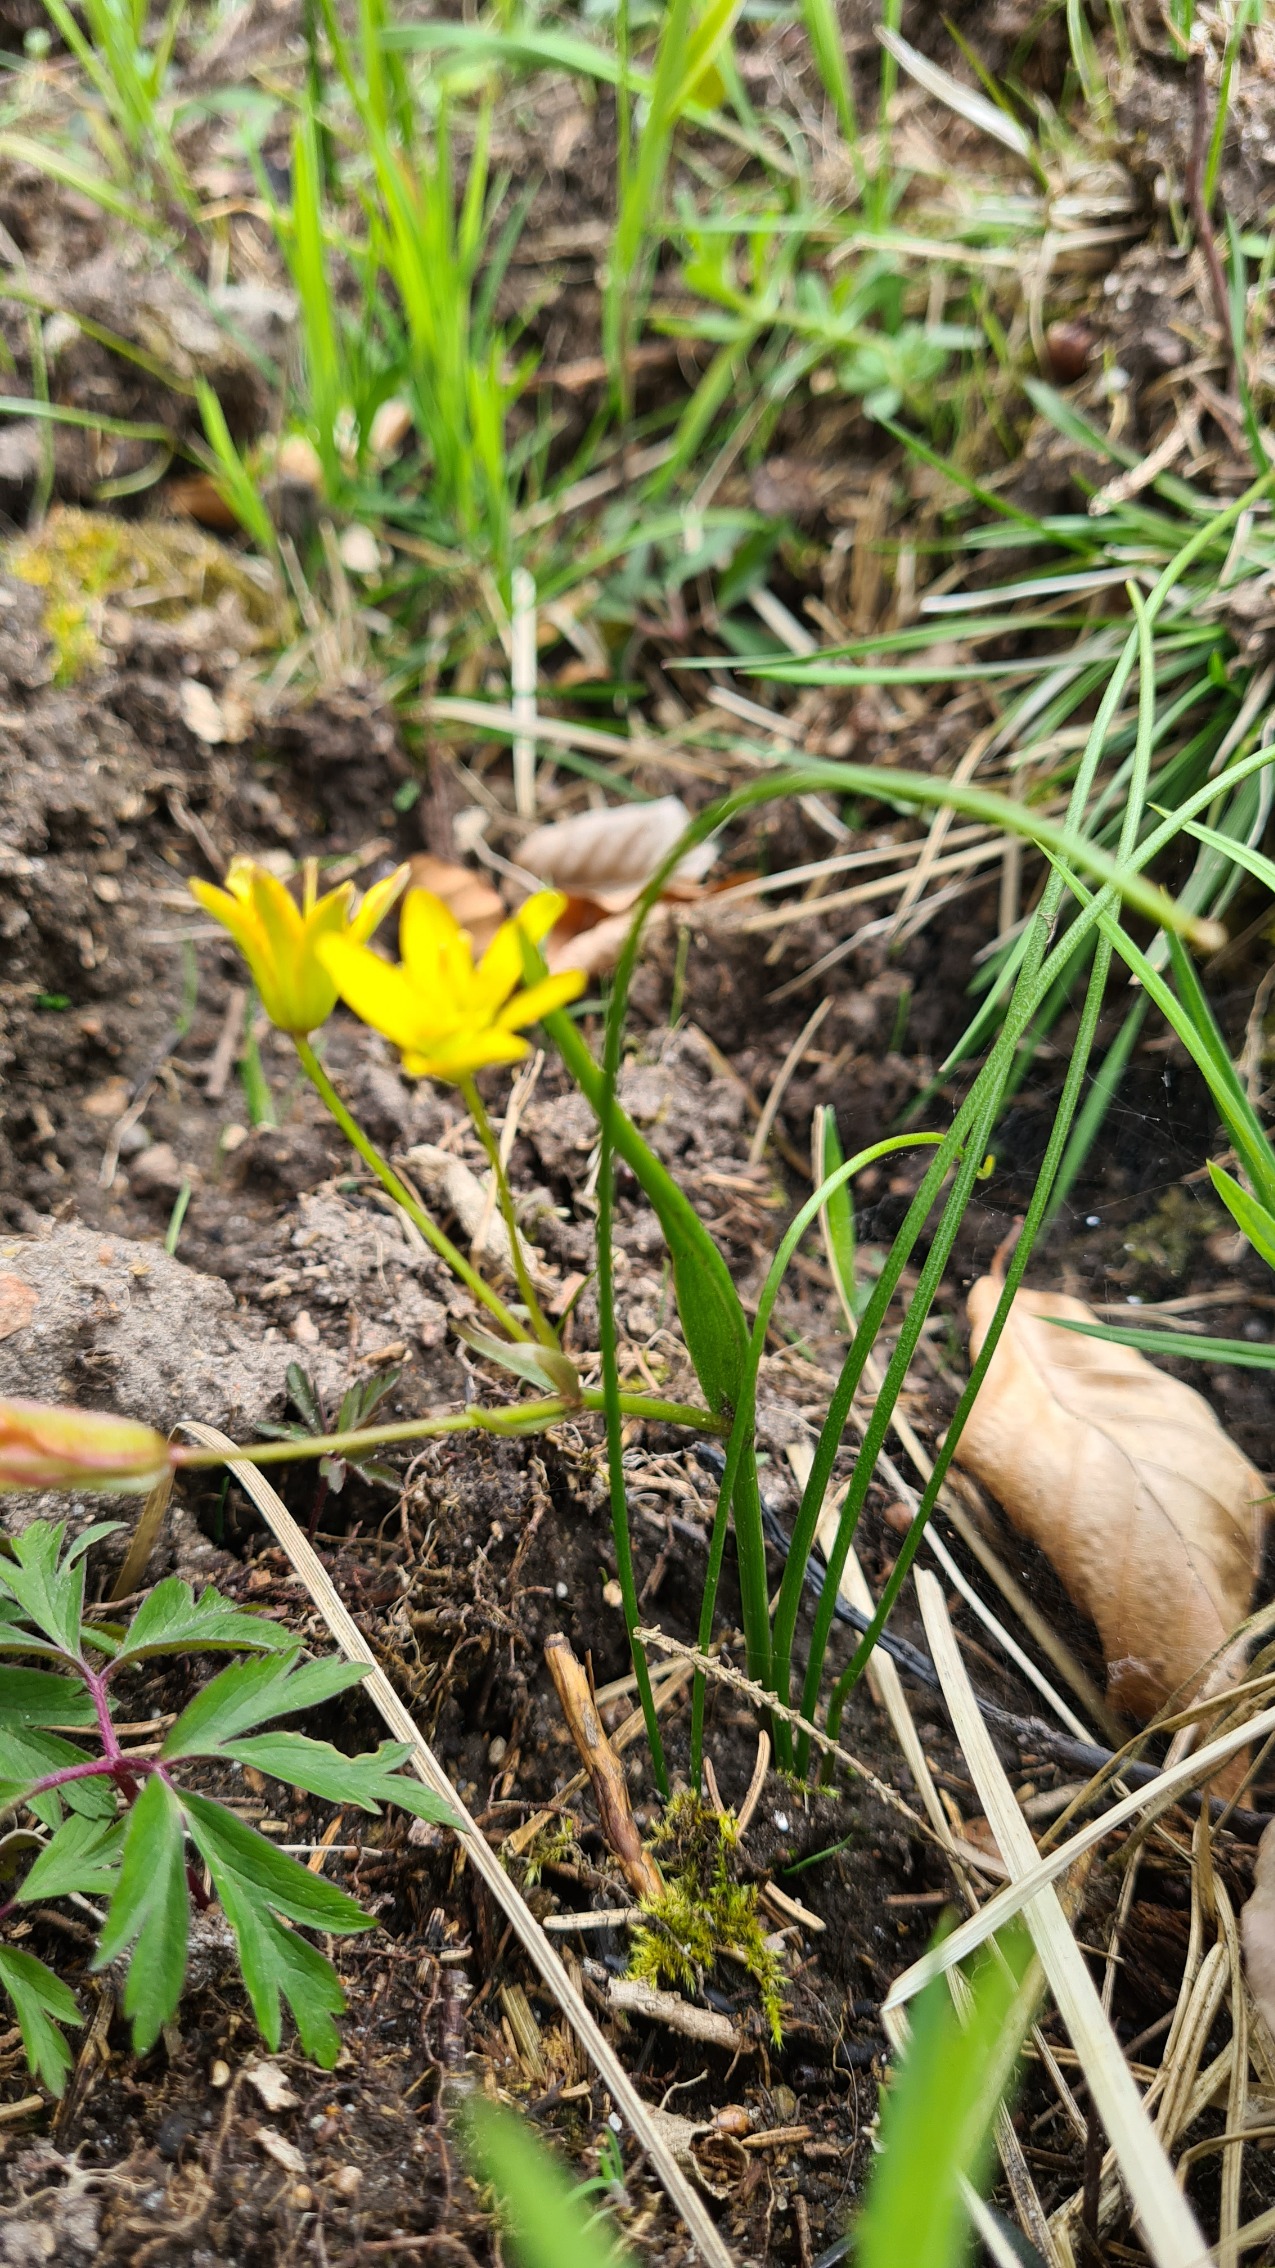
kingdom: Plantae
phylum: Tracheophyta
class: Liliopsida
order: Liliales
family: Liliaceae
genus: Gagea
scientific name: Gagea spathacea
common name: Hylster-guldstjerne
